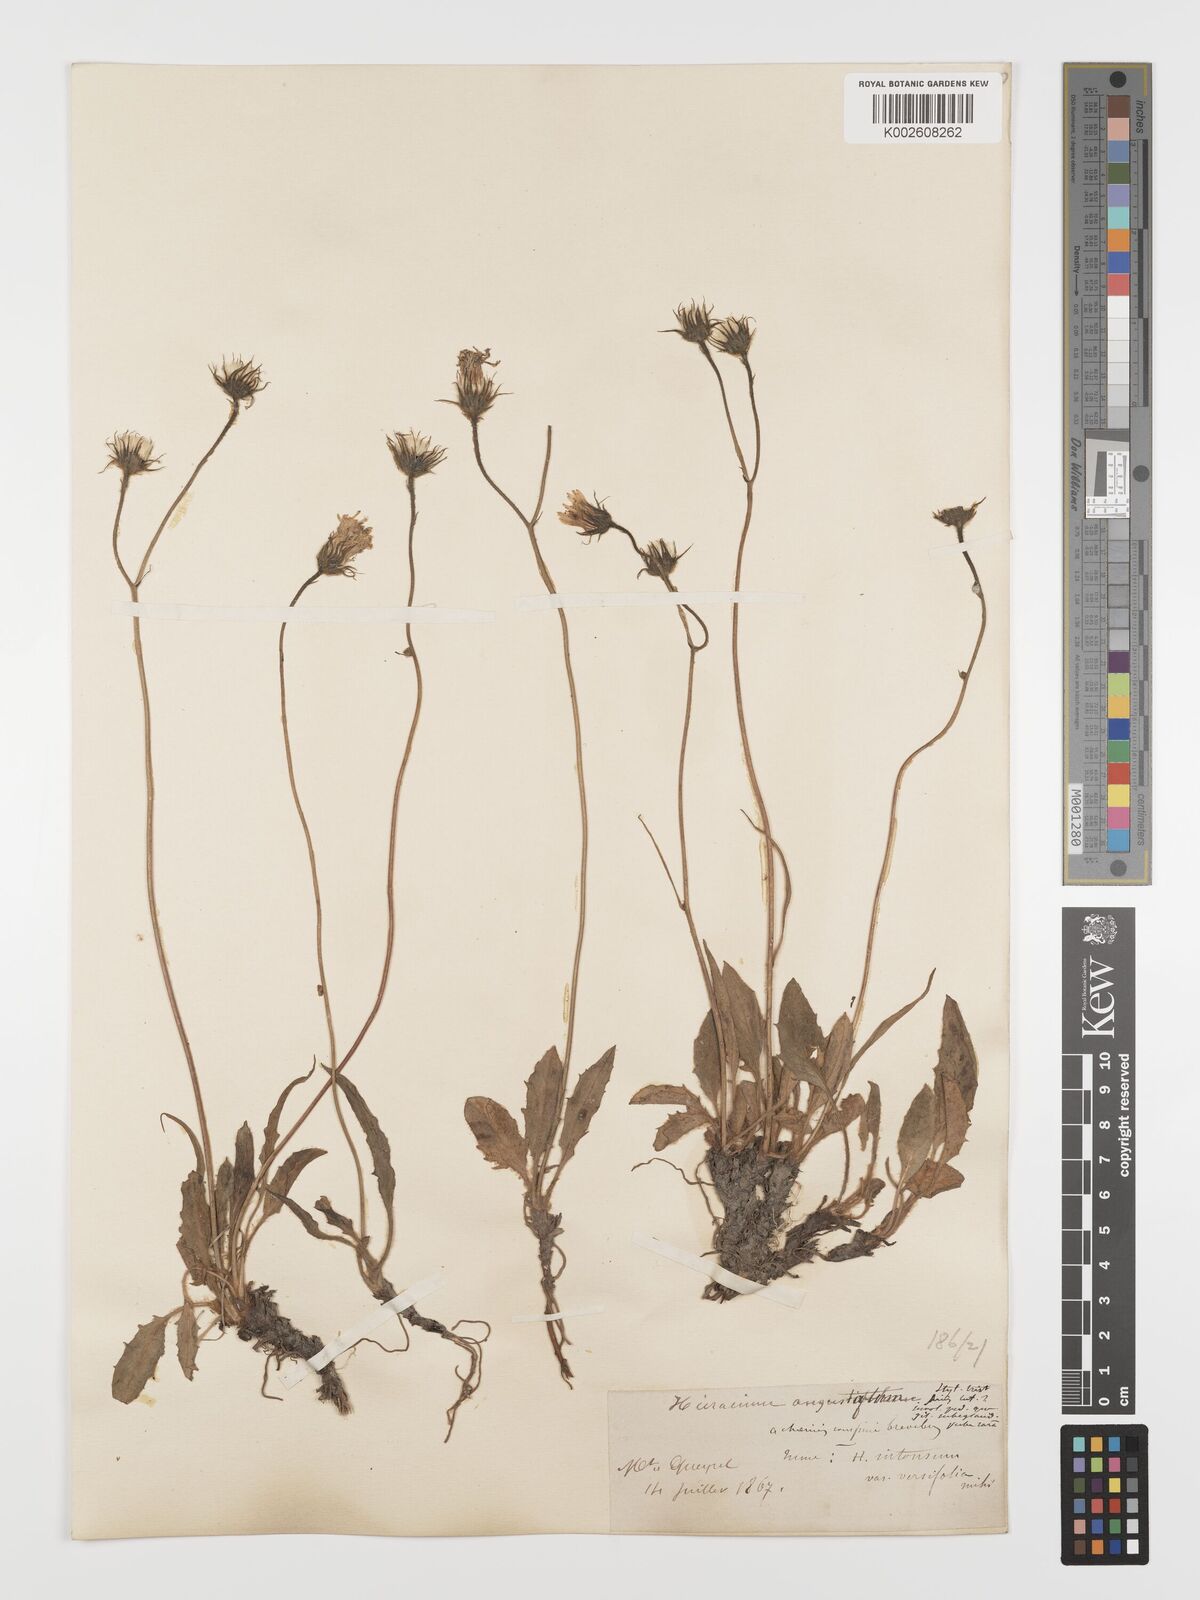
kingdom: Plantae
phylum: Tracheophyta
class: Magnoliopsida
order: Asterales
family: Asteraceae
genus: Hieracium
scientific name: Hieracium
